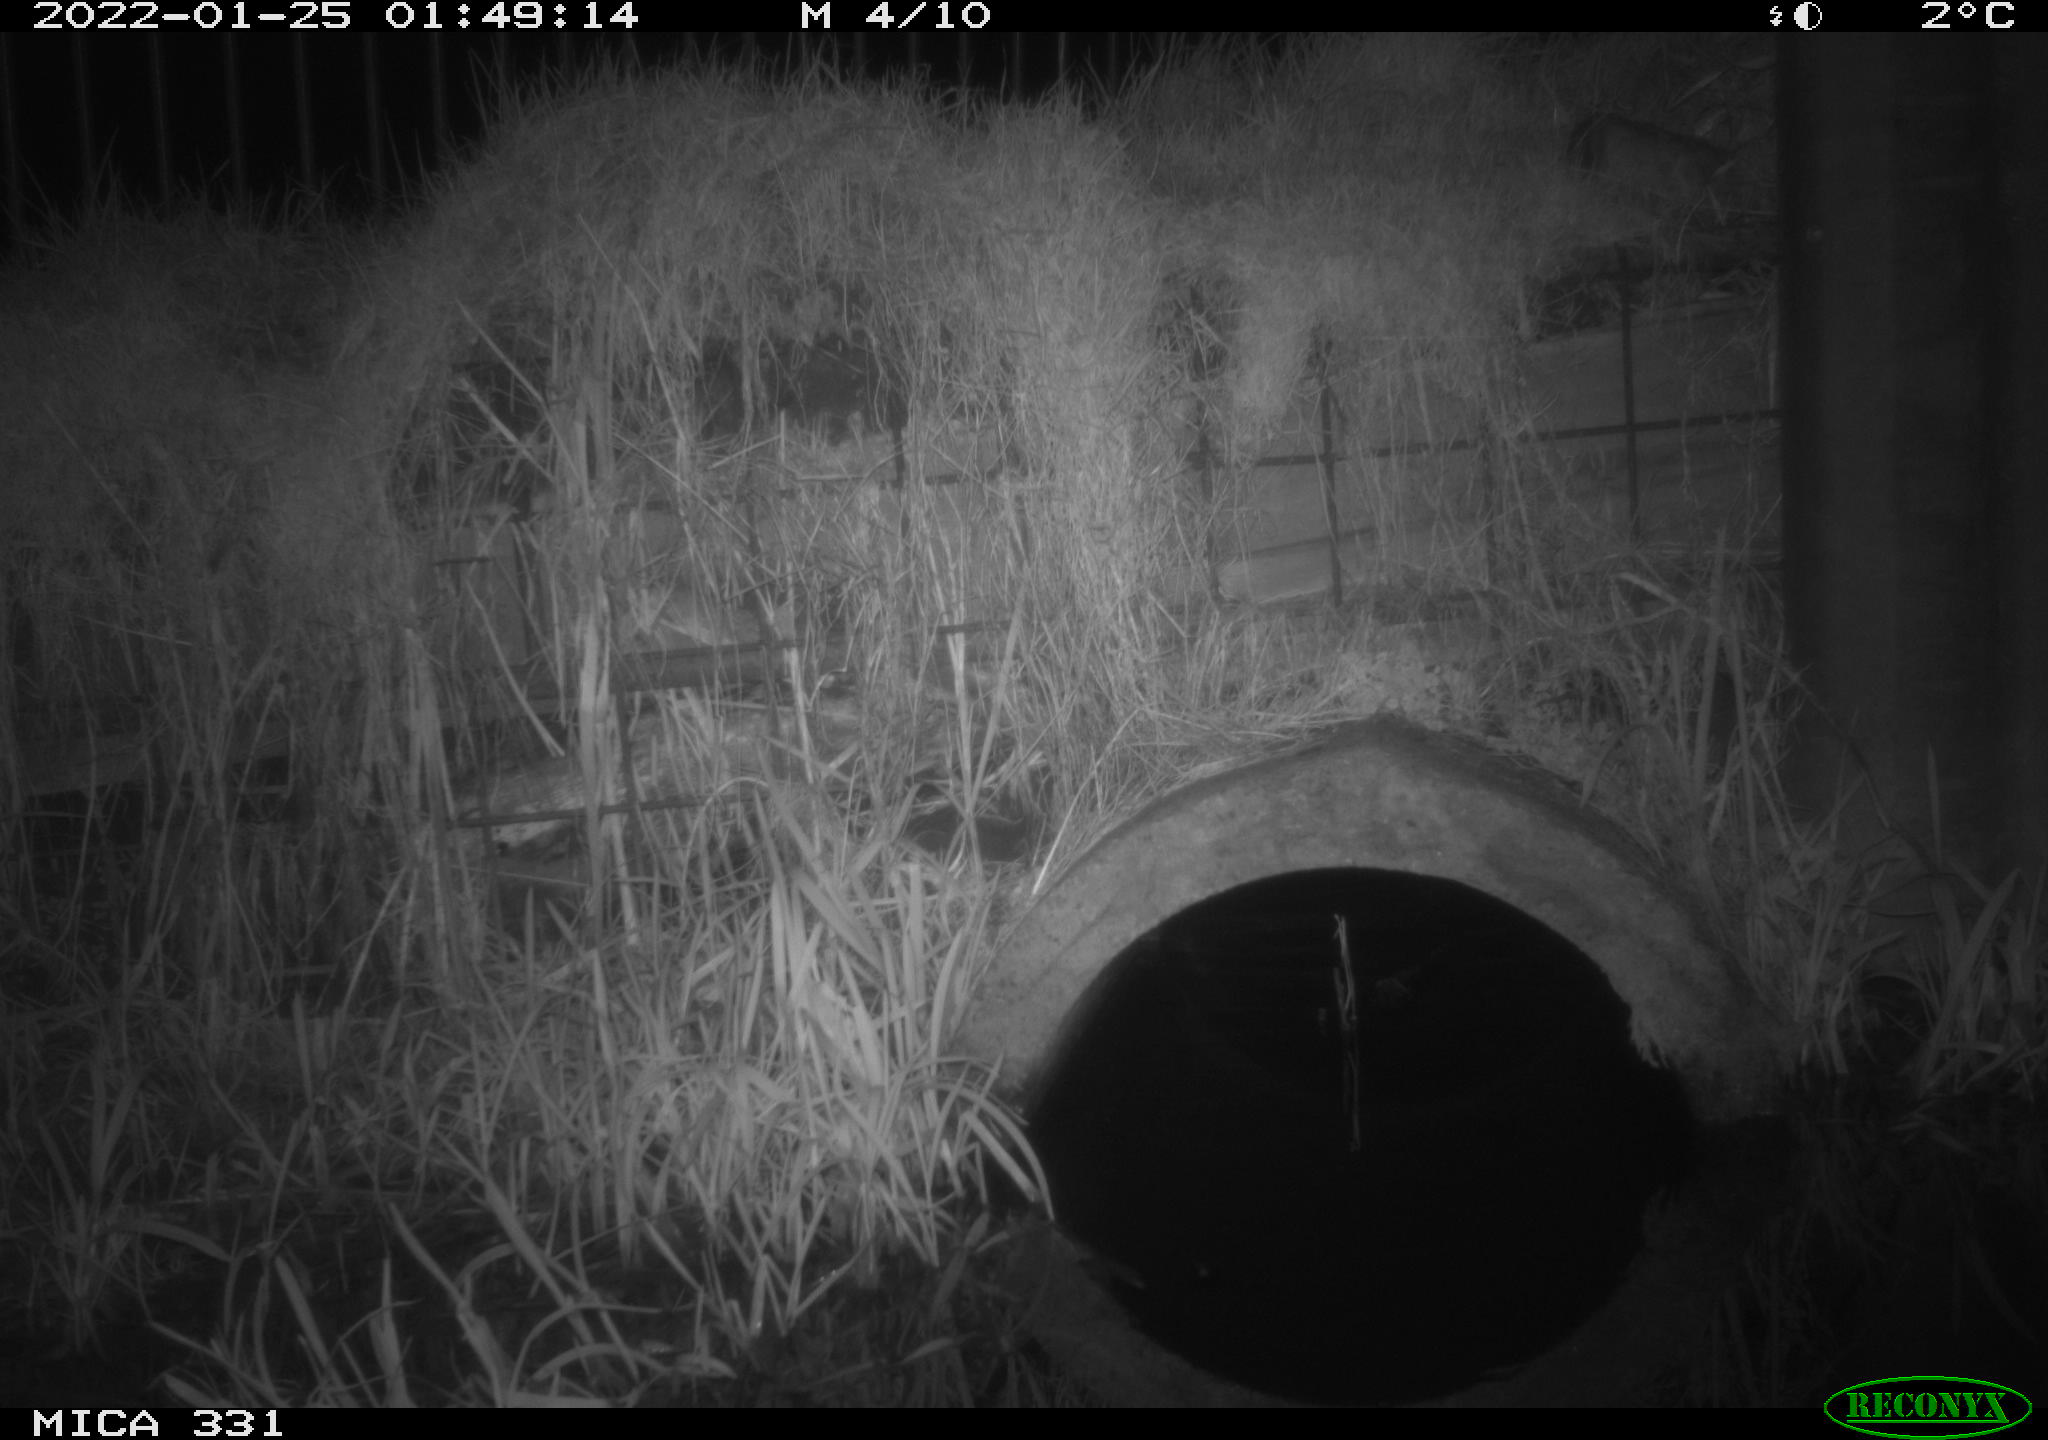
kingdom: Animalia
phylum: Chordata
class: Mammalia
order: Rodentia
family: Muridae
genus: Rattus
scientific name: Rattus norvegicus
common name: Brown rat
